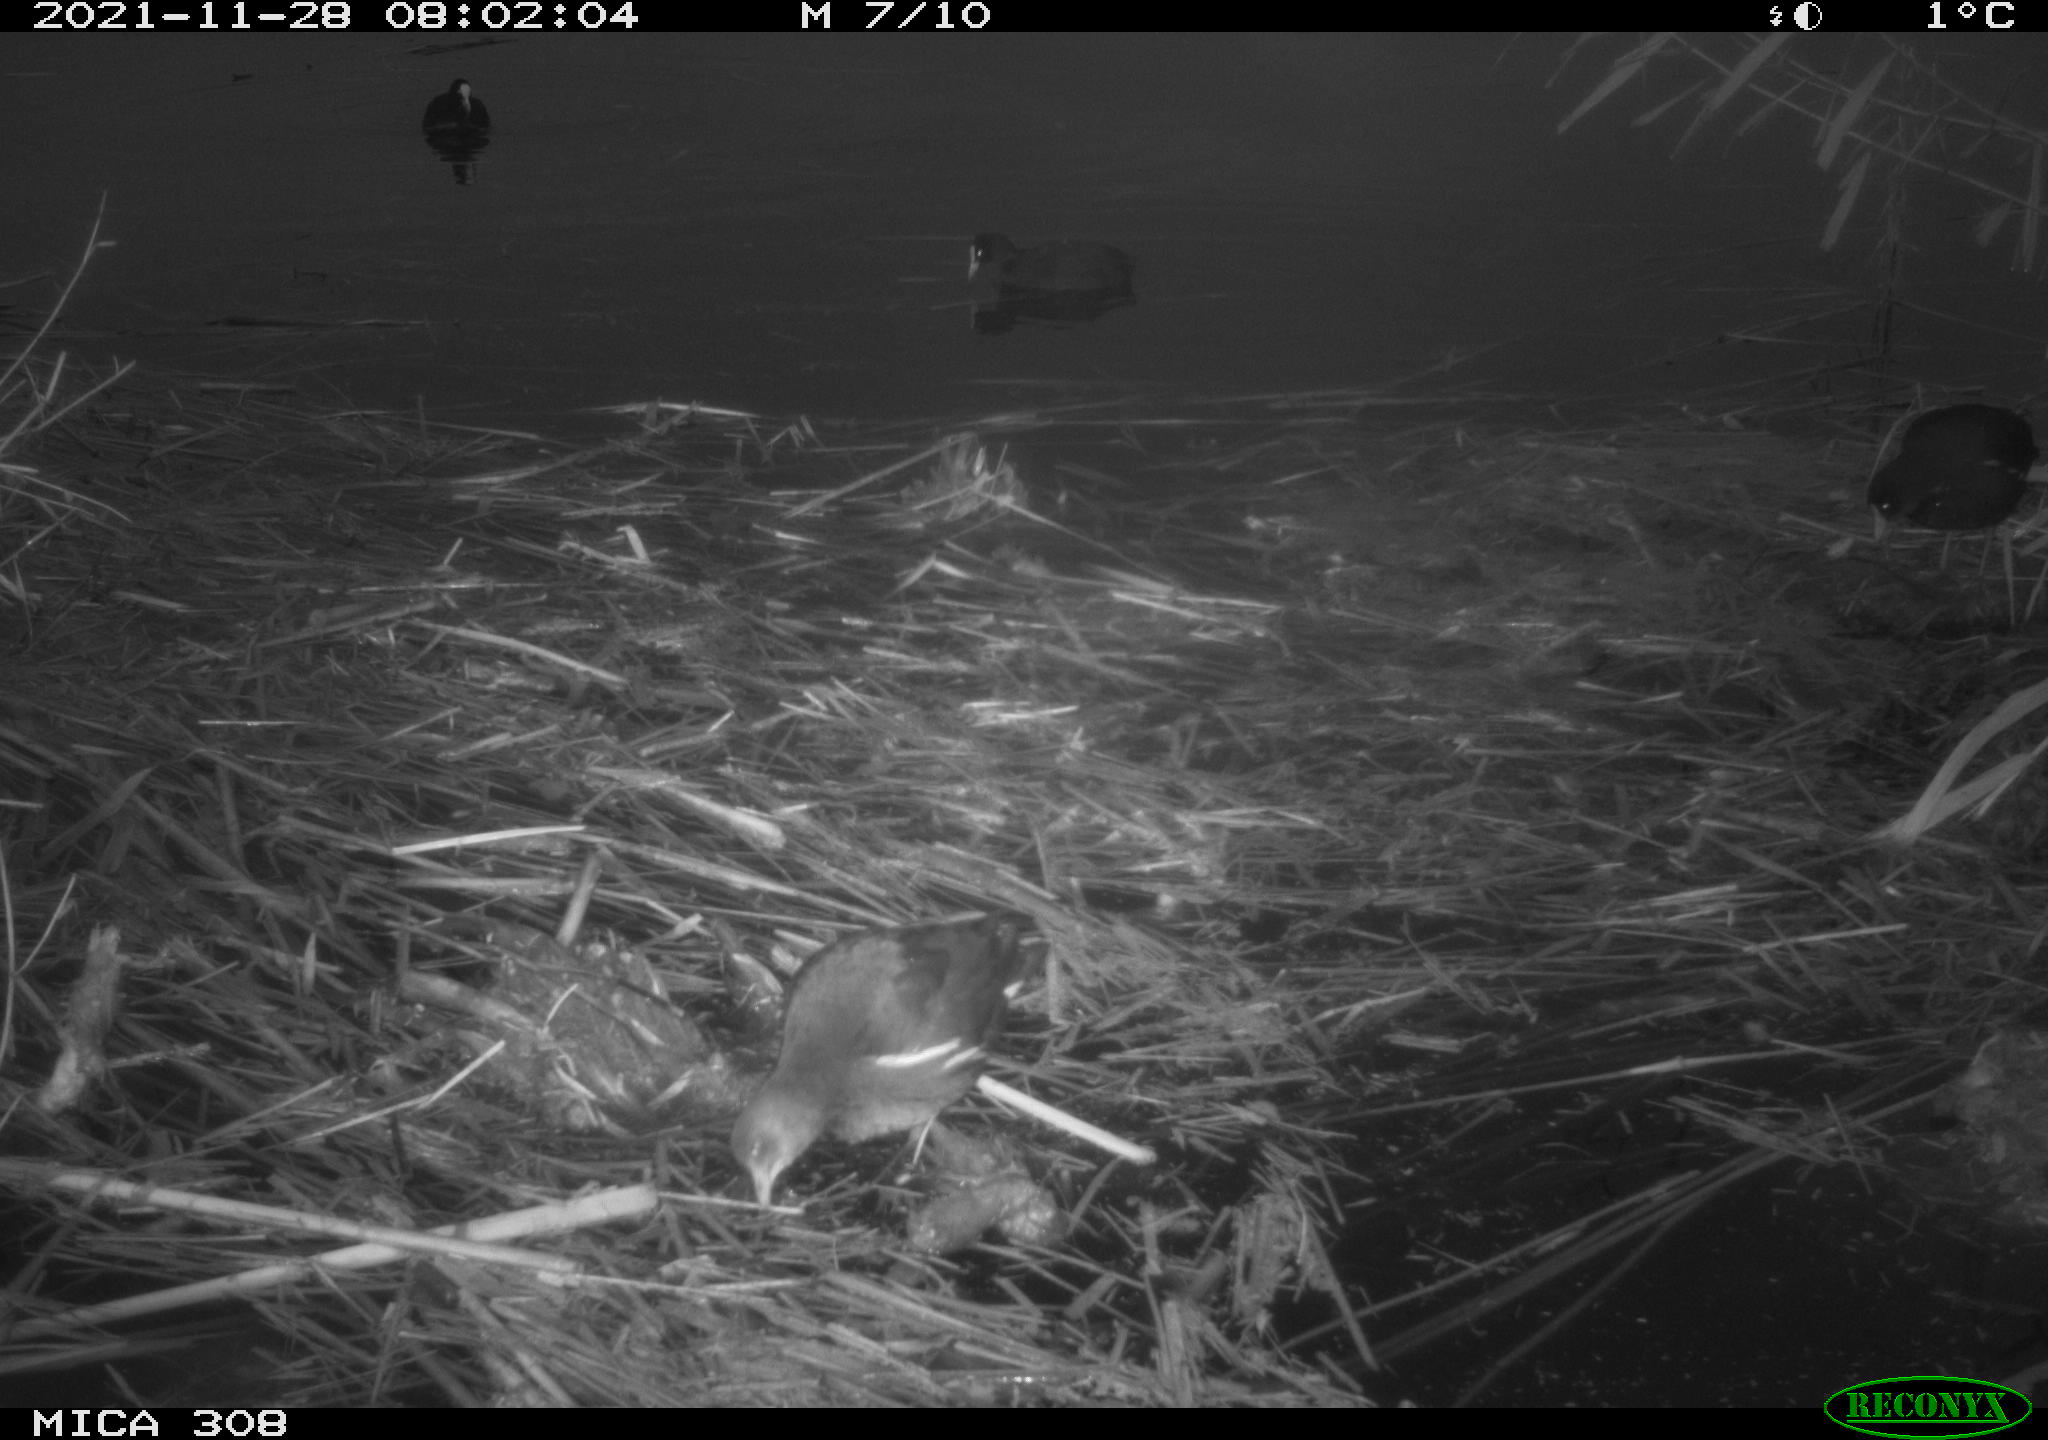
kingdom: Animalia
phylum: Chordata
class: Aves
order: Gruiformes
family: Rallidae
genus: Gallinula
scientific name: Gallinula chloropus
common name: Common moorhen
